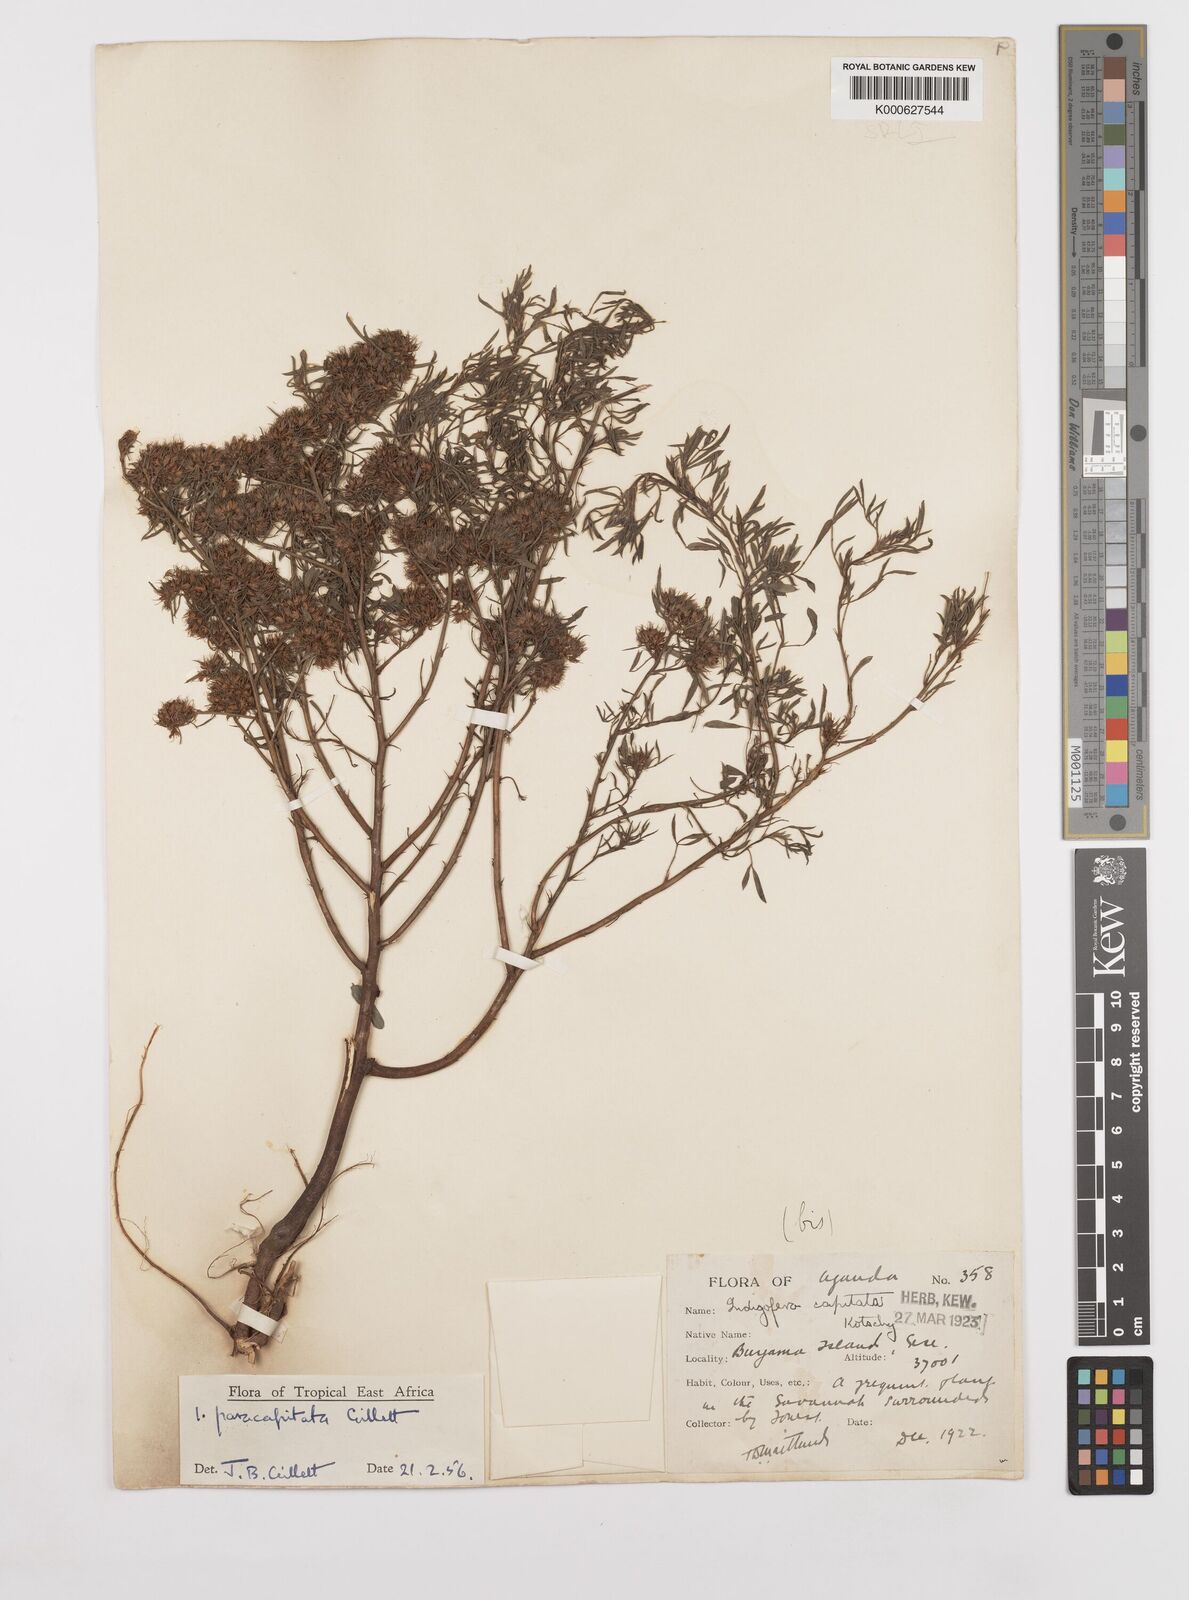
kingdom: Plantae
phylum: Tracheophyta
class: Magnoliopsida
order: Fabales
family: Fabaceae
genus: Indigofera
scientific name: Indigofera paracapitata
